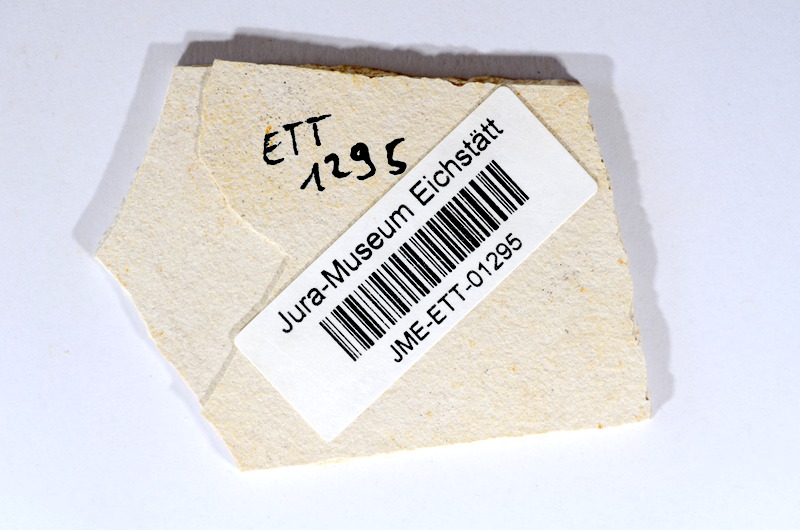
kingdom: Animalia
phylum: Chordata
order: Salmoniformes
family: Orthogonikleithridae
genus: Orthogonikleithrus
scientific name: Orthogonikleithrus hoelli
